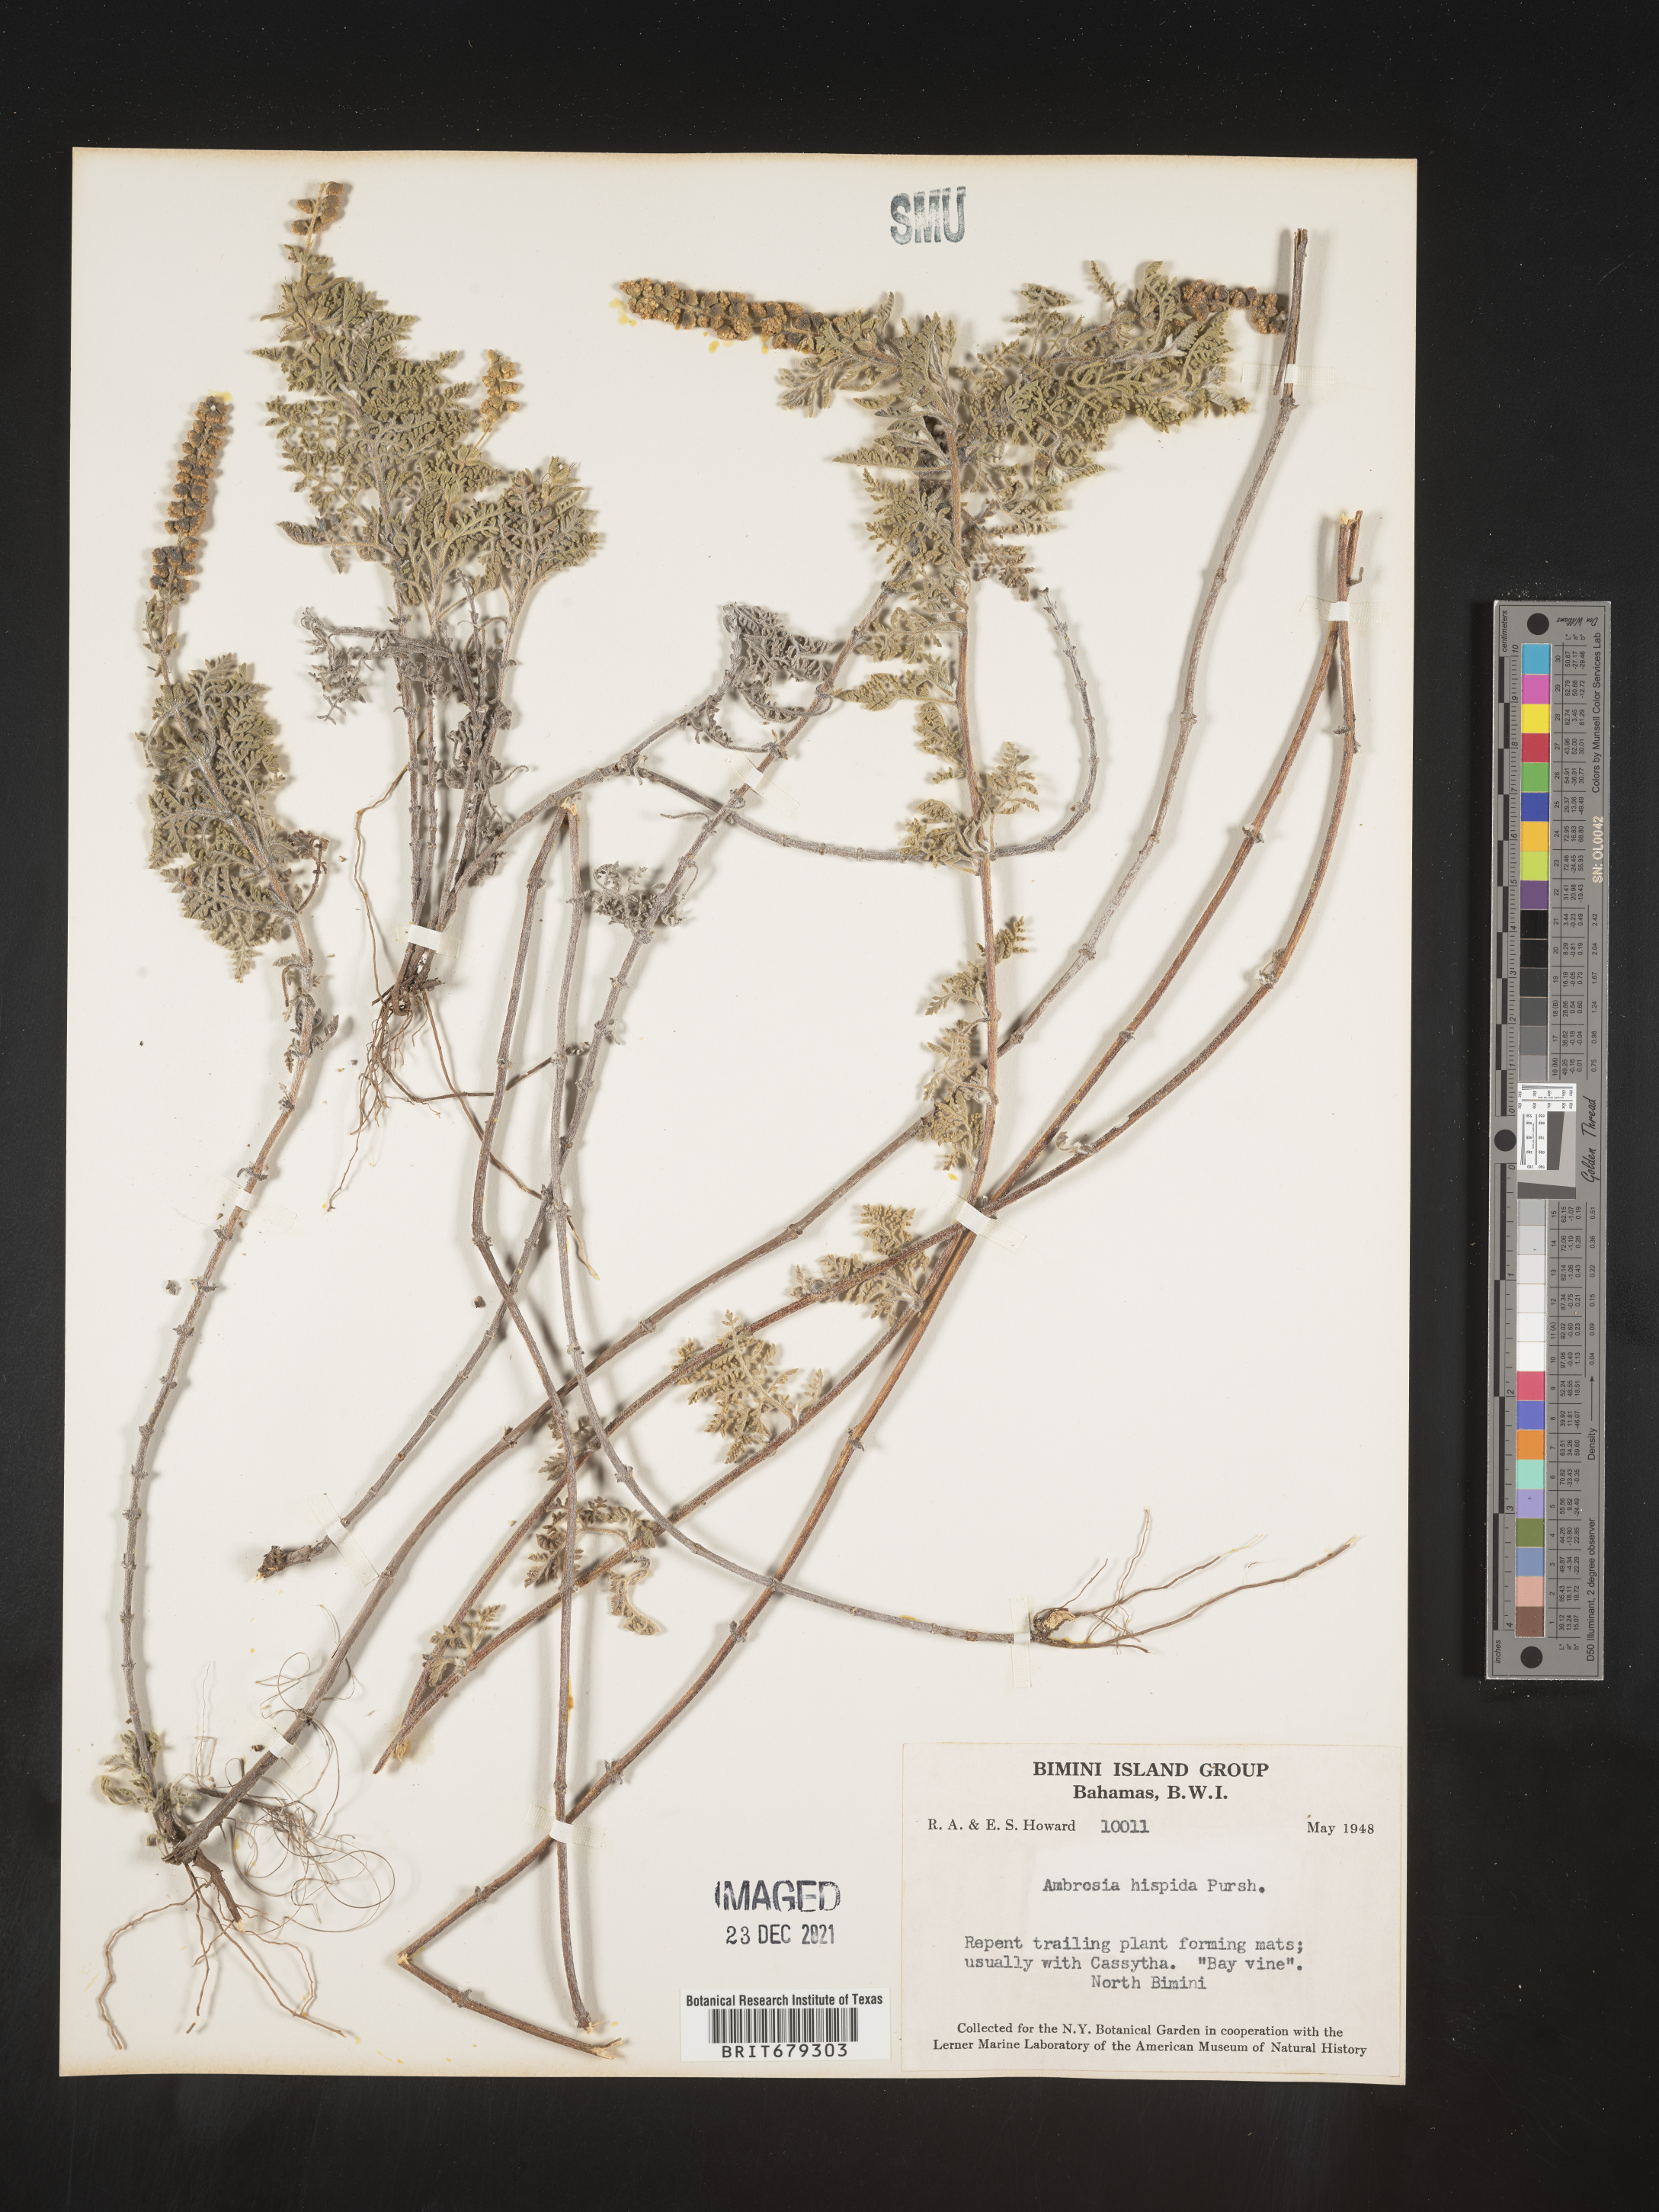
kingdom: Plantae
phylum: Tracheophyta
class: Magnoliopsida
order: Asterales
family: Asteraceae
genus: Ambrosia
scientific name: Ambrosia
